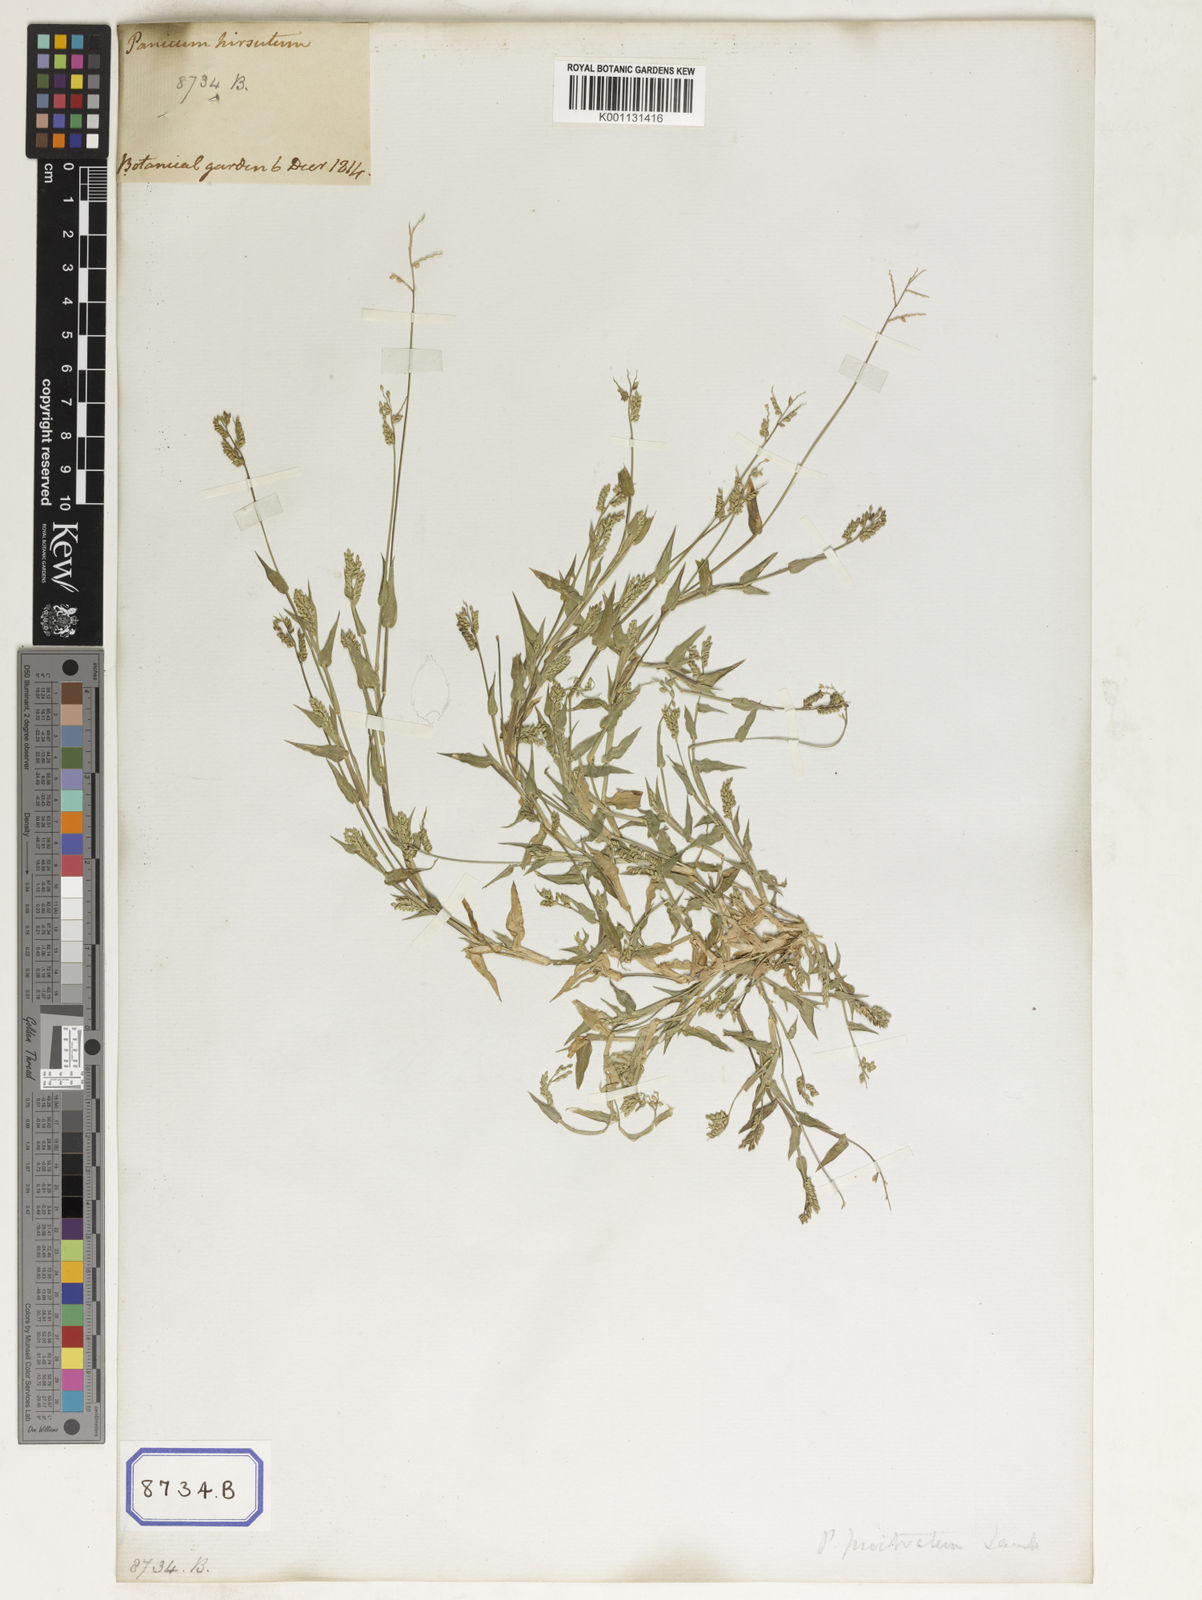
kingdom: Plantae
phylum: Tracheophyta
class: Liliopsida
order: Poales
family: Poaceae
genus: Panicum
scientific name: Panicum
